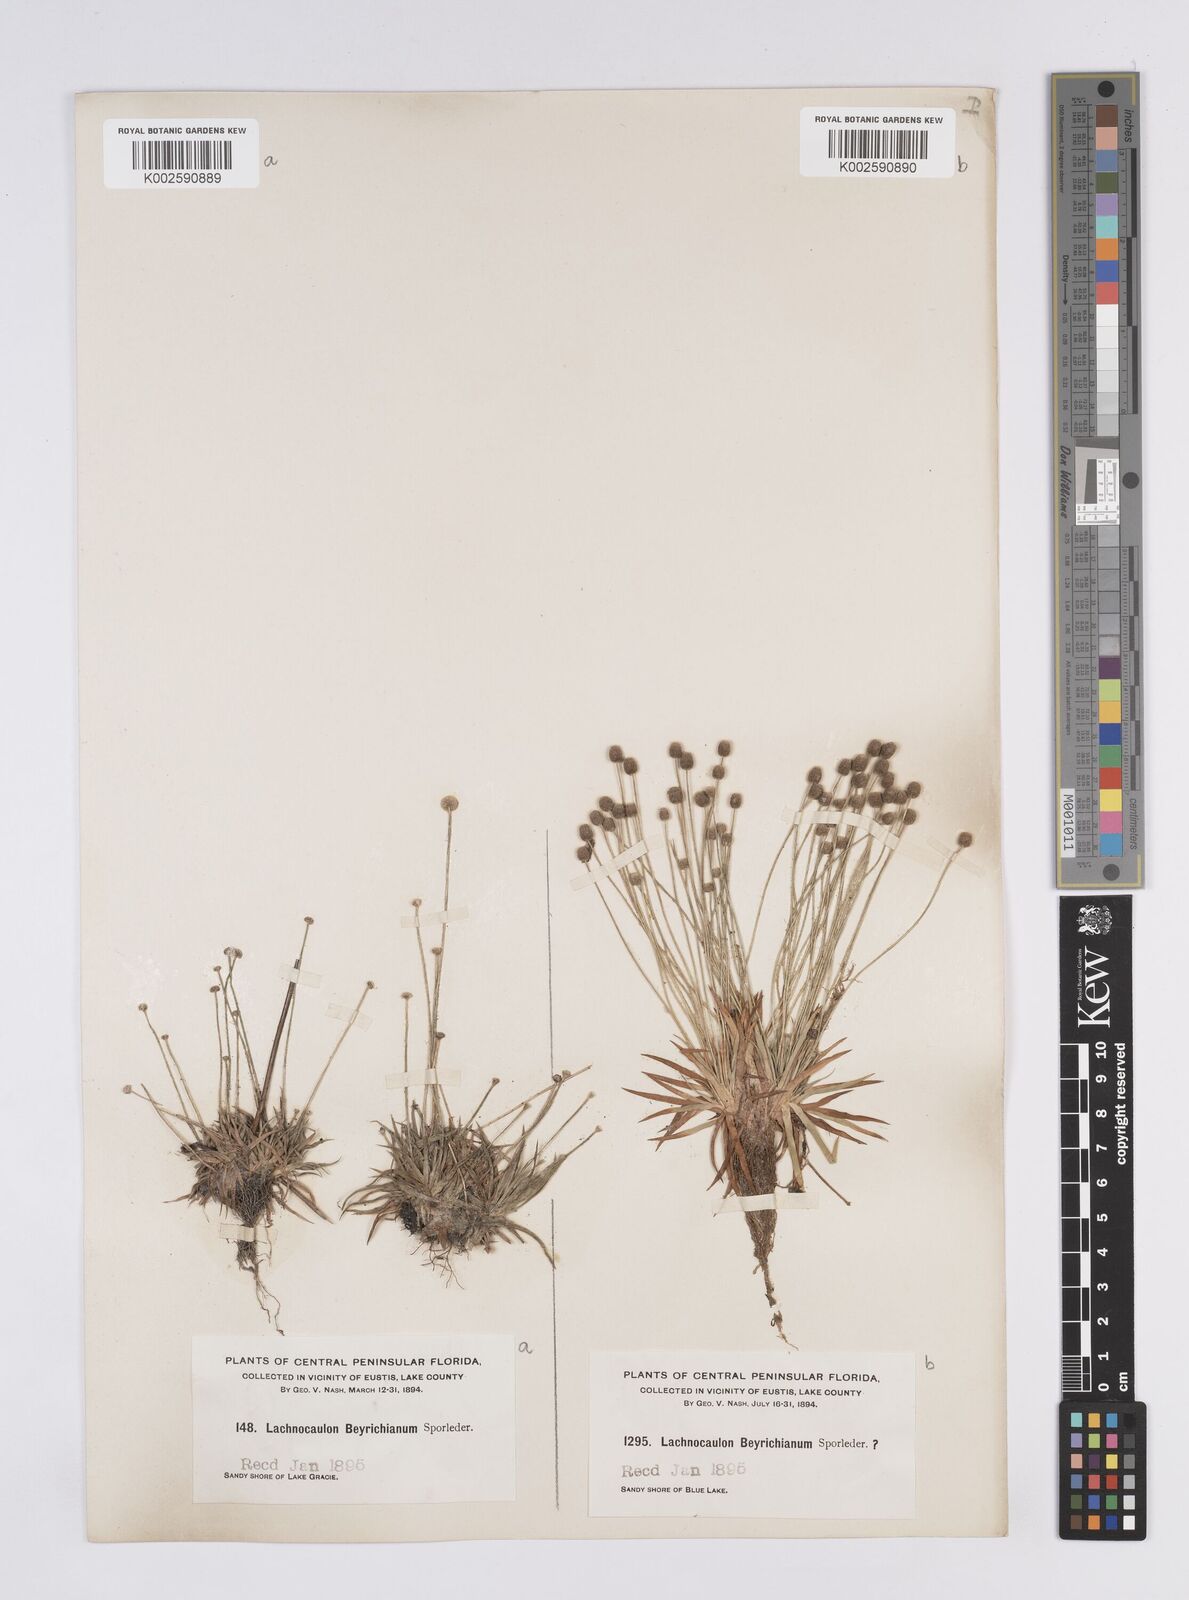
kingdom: Plantae
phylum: Tracheophyta
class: Liliopsida
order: Poales
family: Eriocaulaceae
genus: Paepalanthus
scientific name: Paepalanthus anceps
